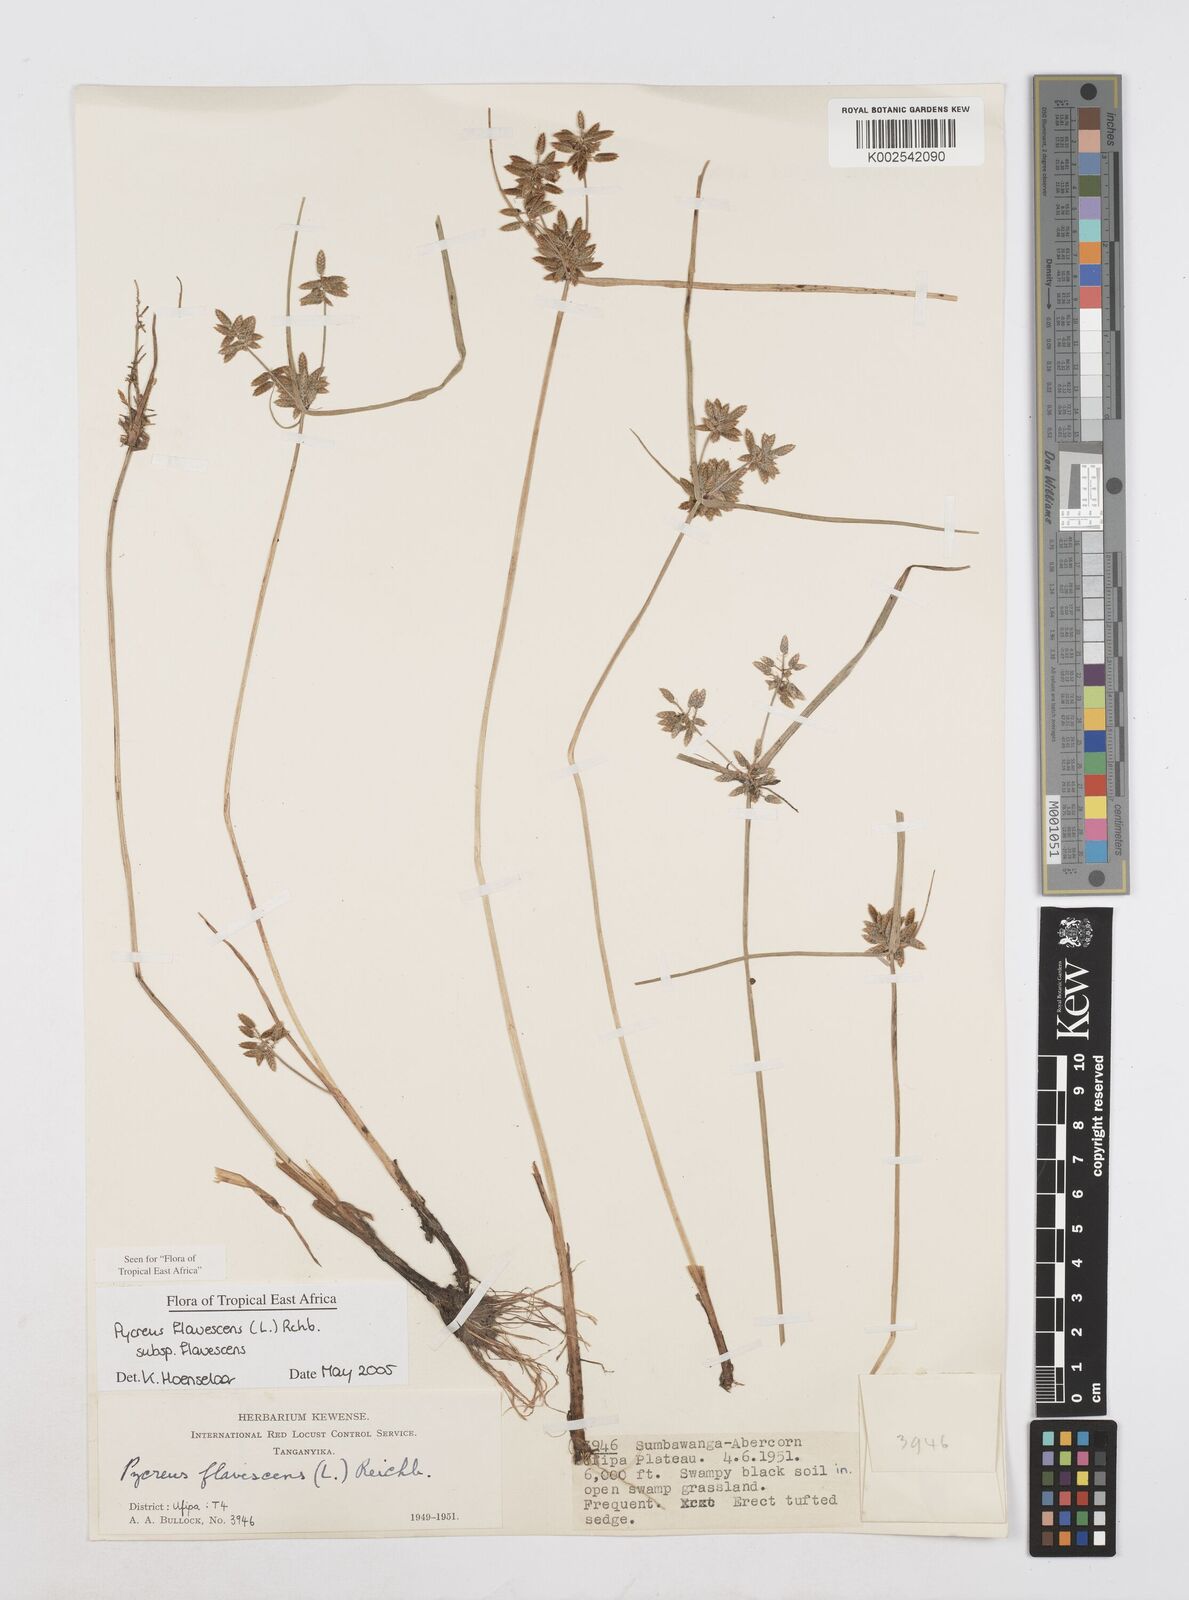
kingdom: Plantae
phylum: Tracheophyta
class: Liliopsida
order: Poales
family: Cyperaceae
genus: Cyperus
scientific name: Cyperus flavescens
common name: Yellow galingale
